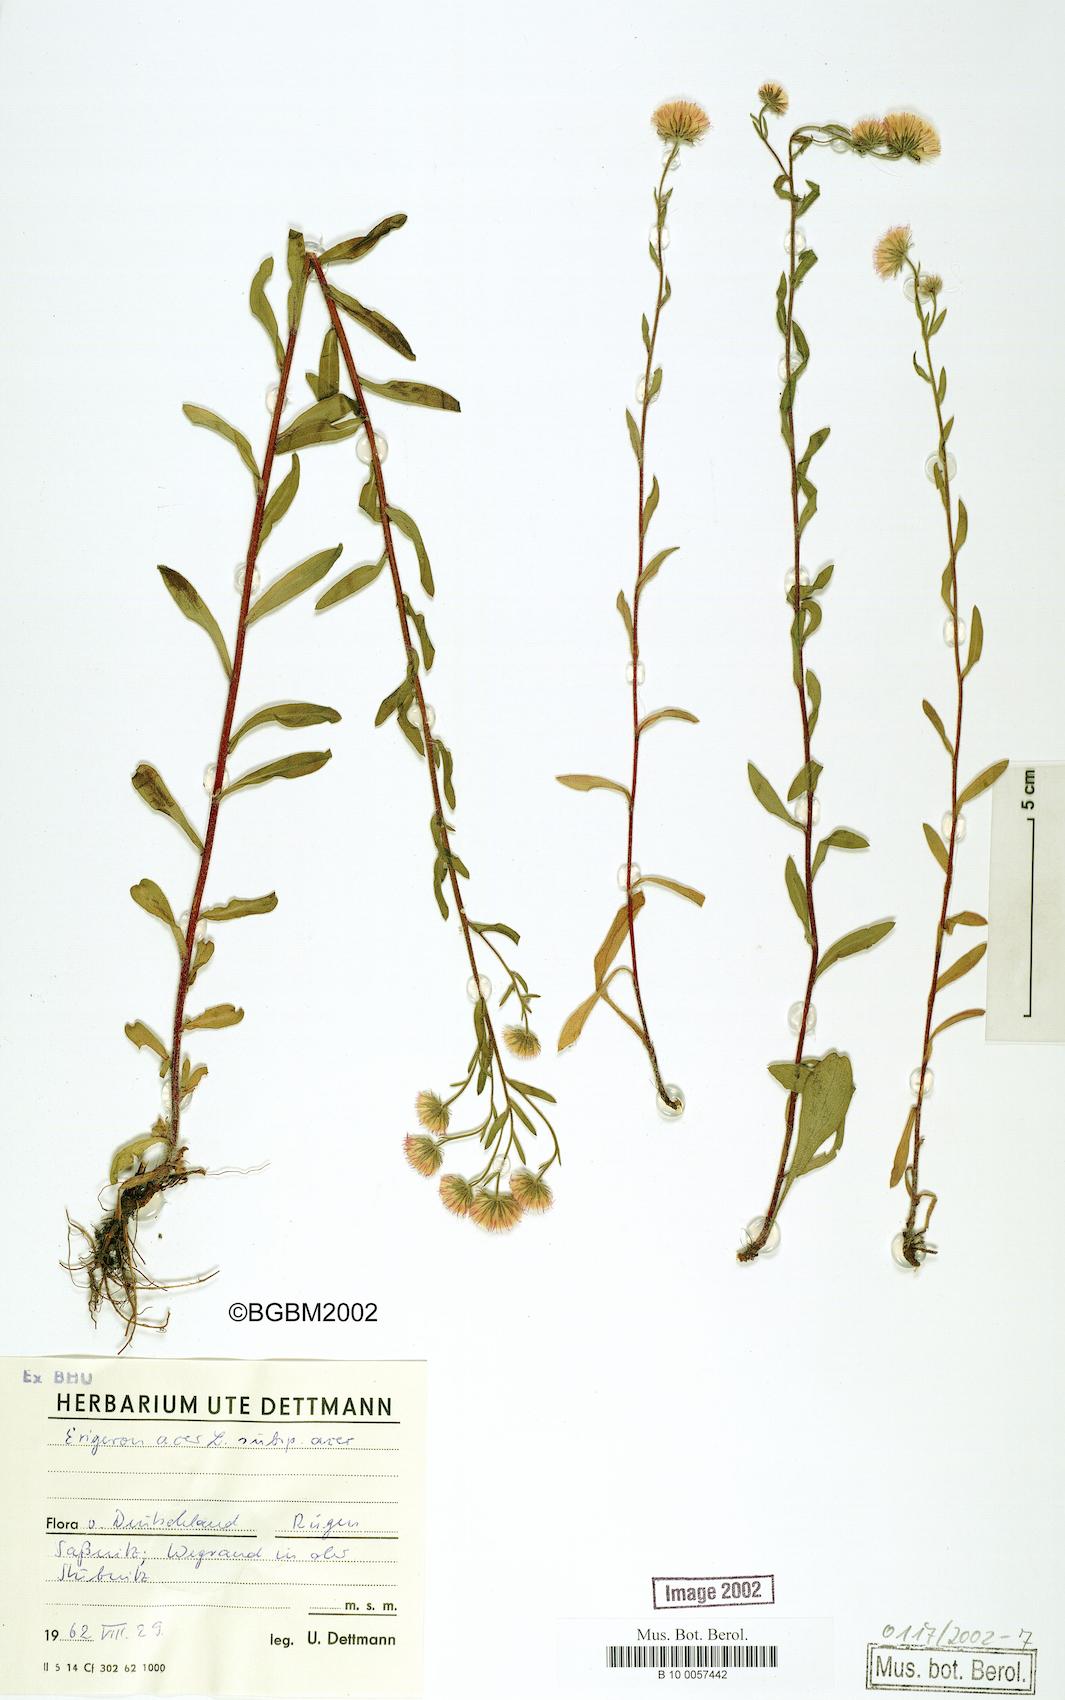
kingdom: Plantae
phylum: Tracheophyta
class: Magnoliopsida
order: Asterales
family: Asteraceae
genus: Erigeron
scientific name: Erigeron muralis
